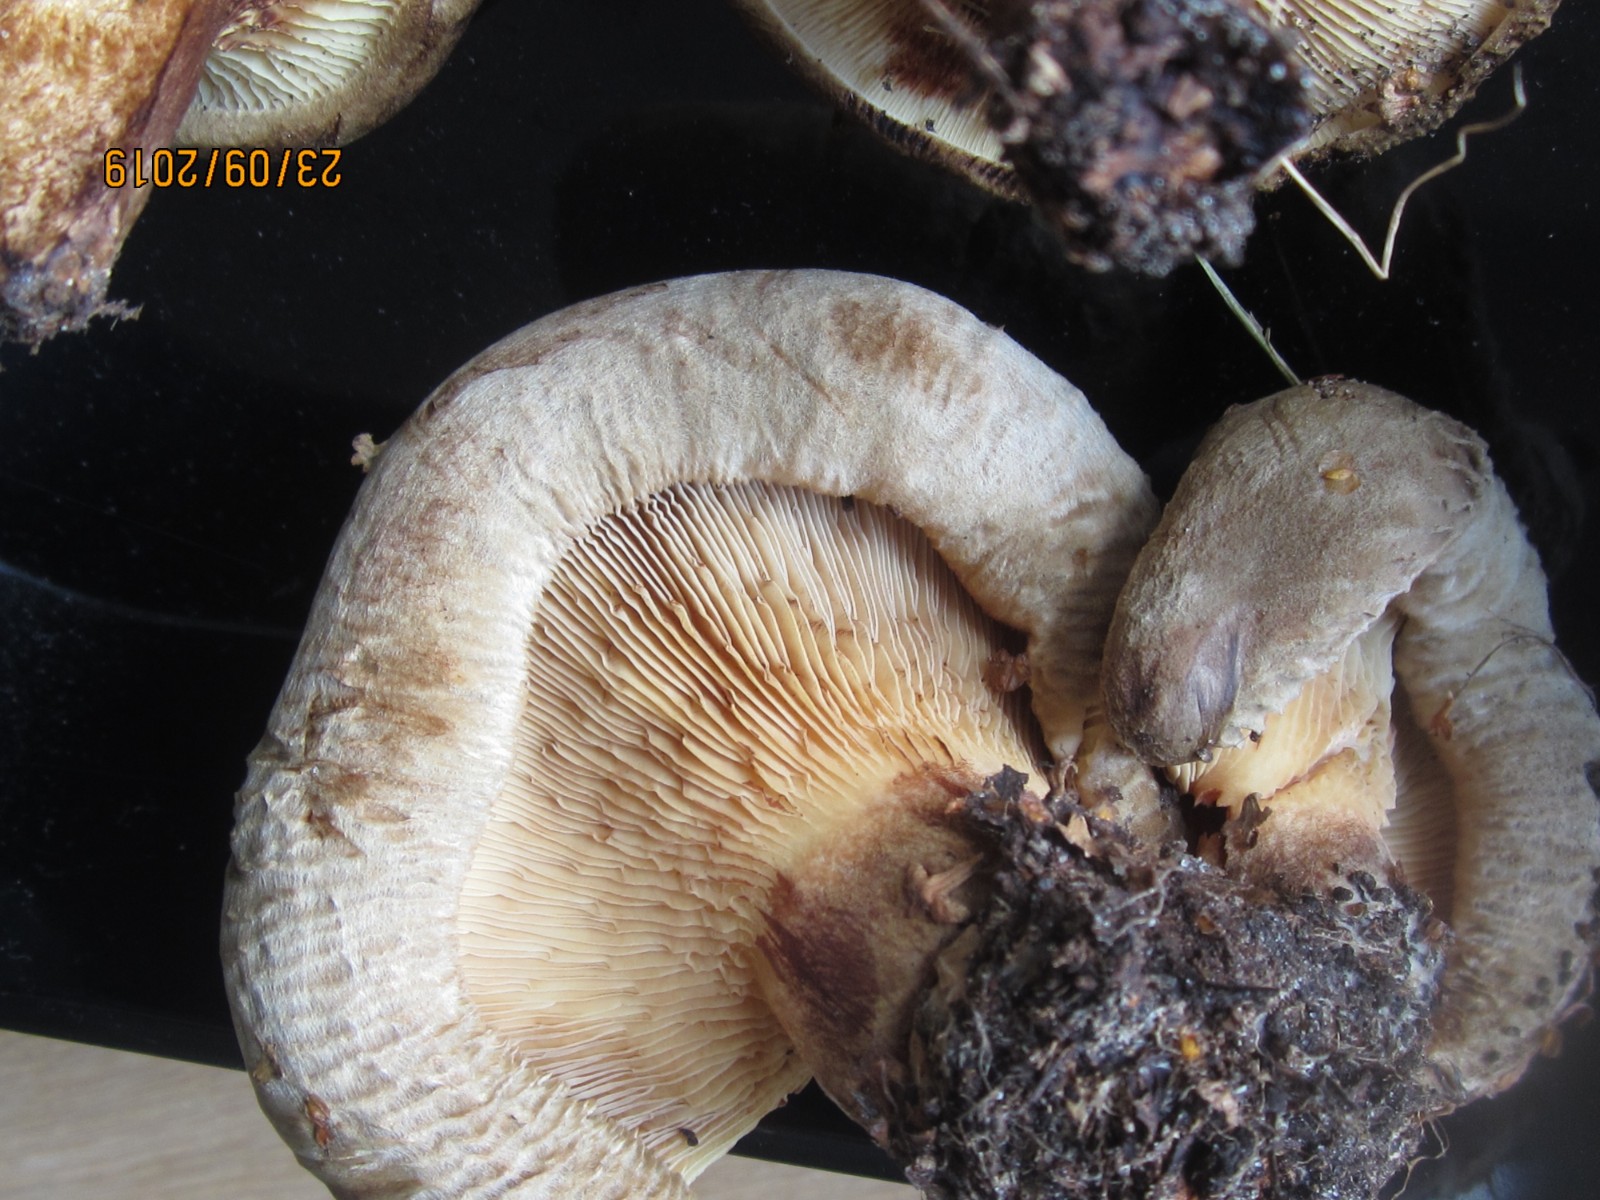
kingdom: Fungi
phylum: Basidiomycota
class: Agaricomycetes
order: Boletales
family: Paxillaceae
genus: Paxillus
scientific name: Paxillus obscurisporus
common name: mahognisporet netbladhat
